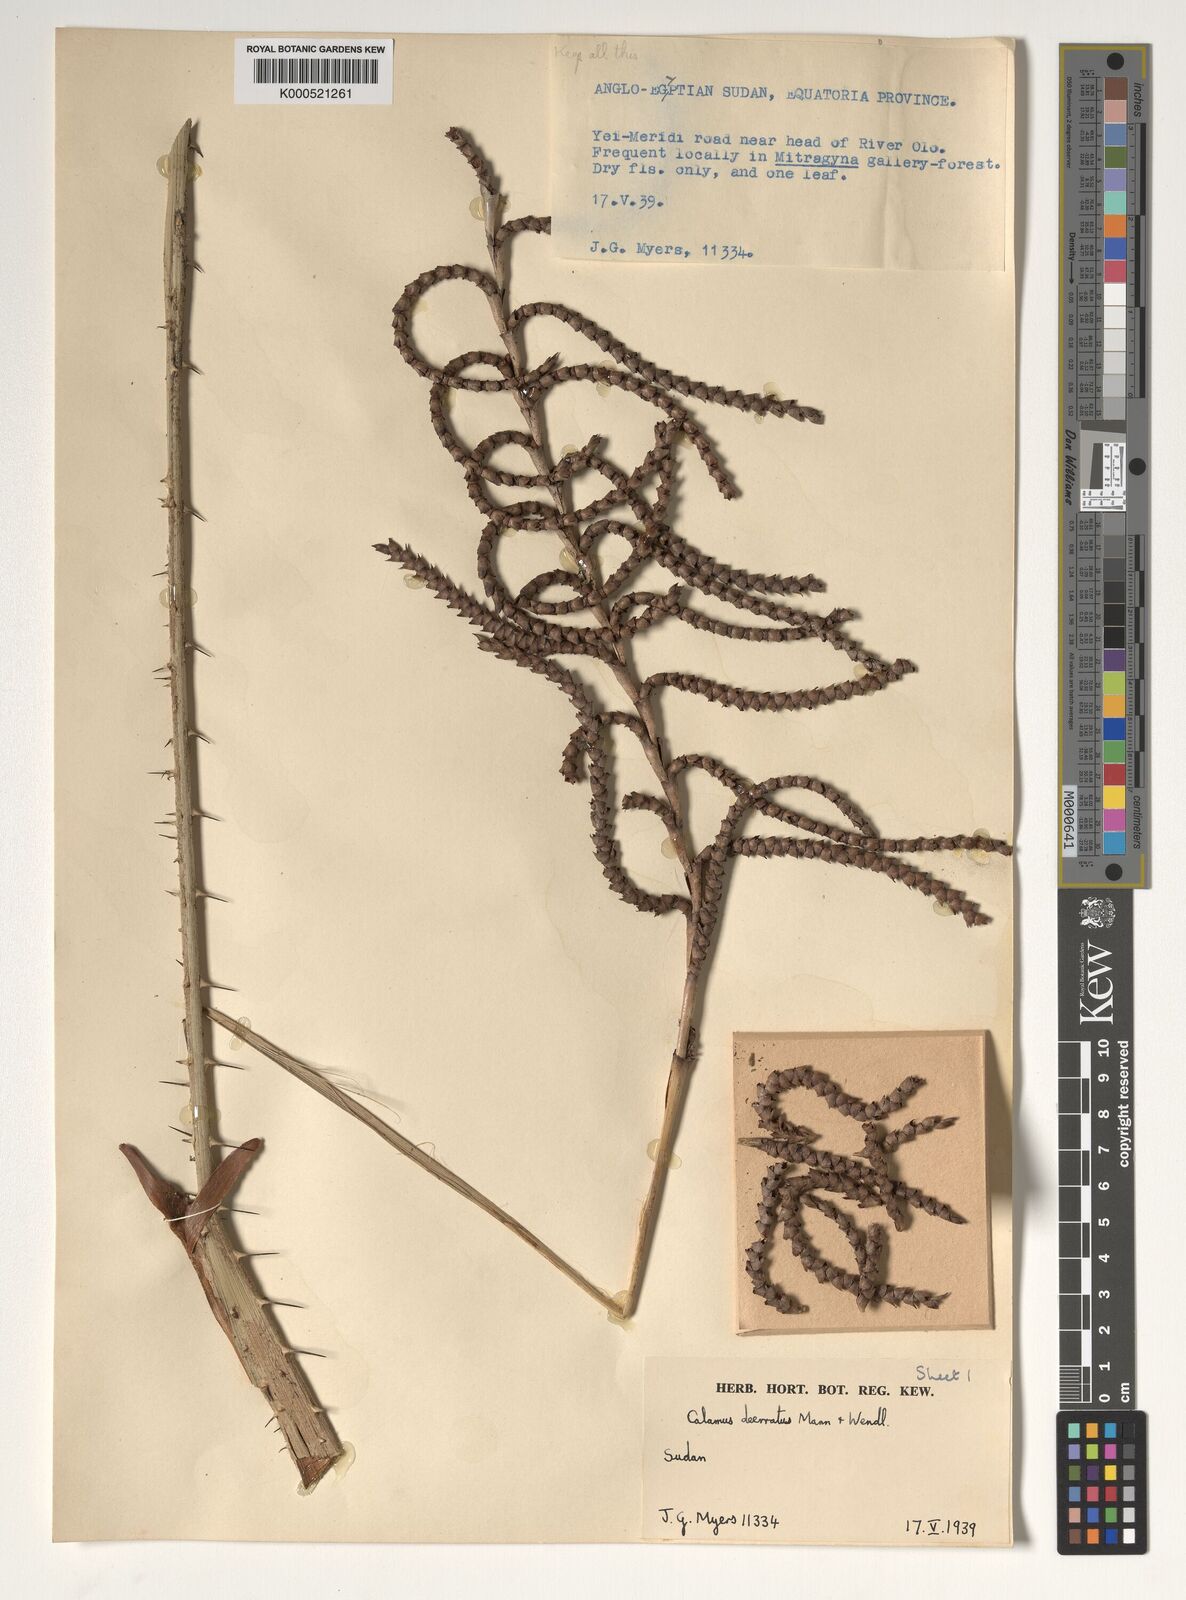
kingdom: Plantae
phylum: Tracheophyta
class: Liliopsida
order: Arecales
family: Arecaceae
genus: Calamus
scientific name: Calamus deerratus
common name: Rattan
